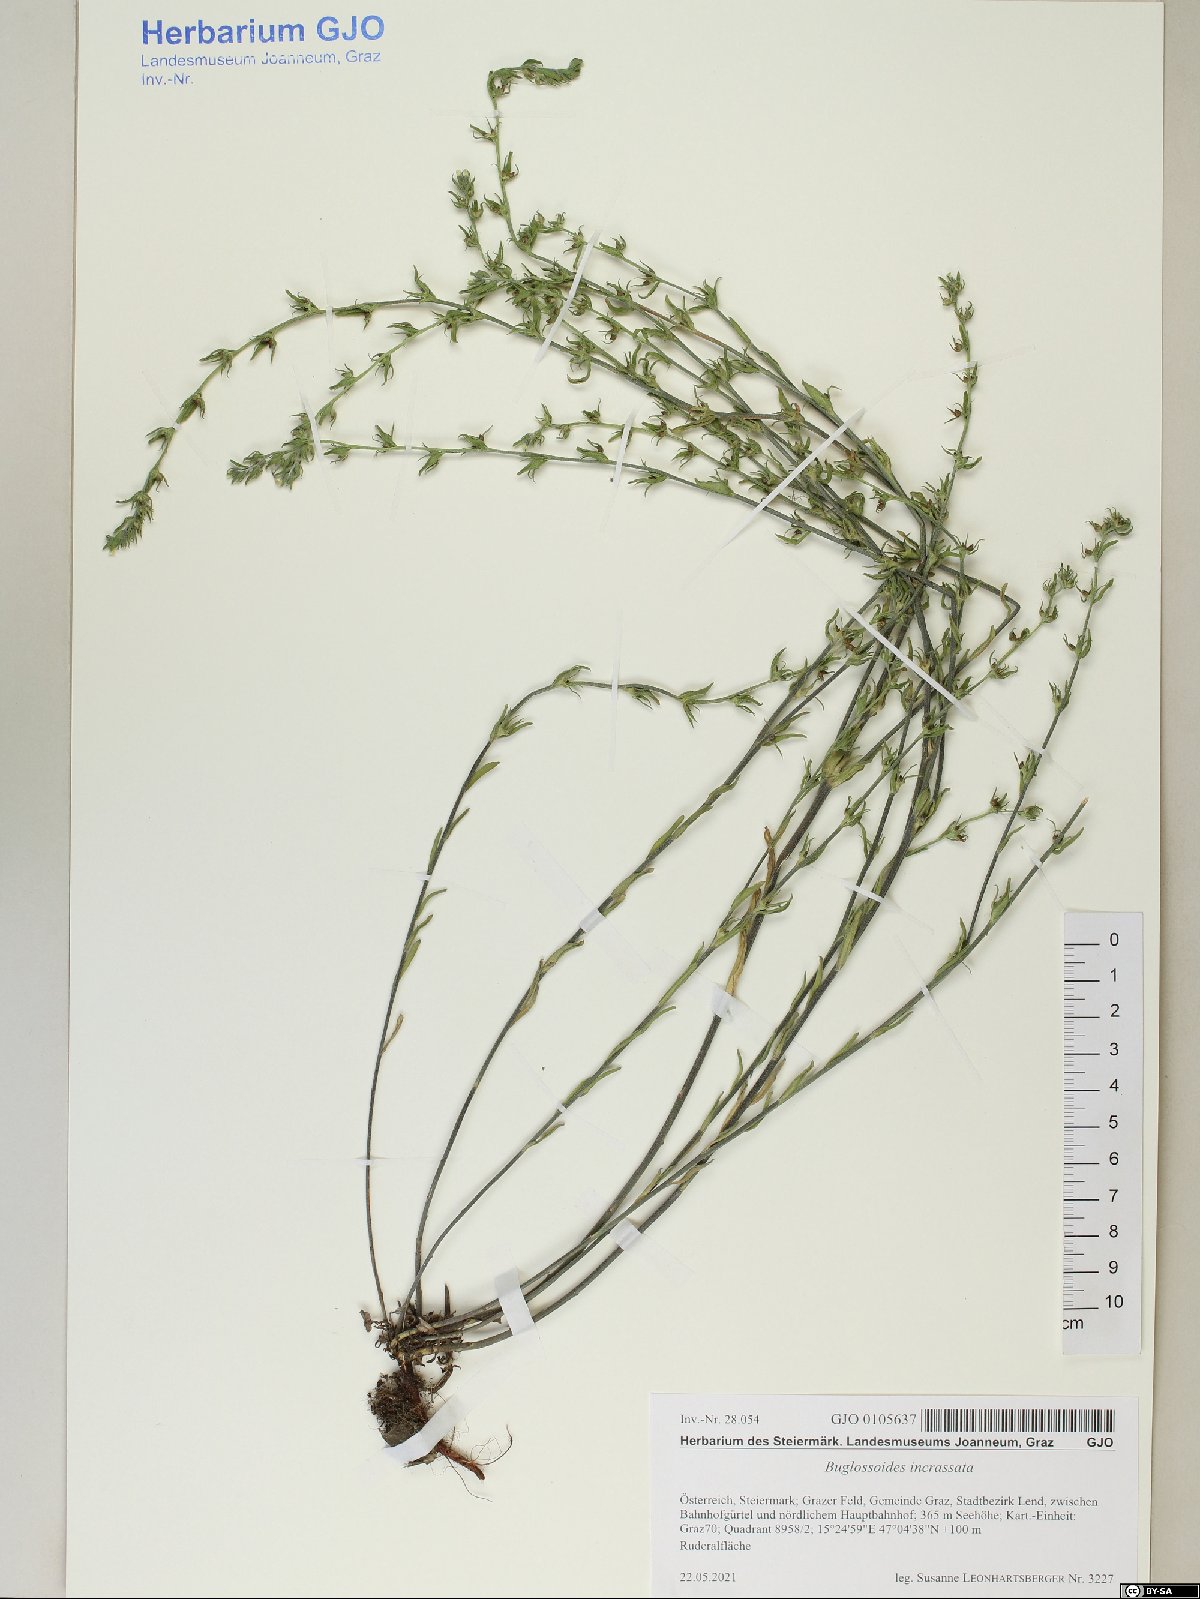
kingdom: Plantae
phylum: Tracheophyta
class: Magnoliopsida
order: Boraginales
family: Boraginaceae
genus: Buglossoides
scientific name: Buglossoides incrassata
